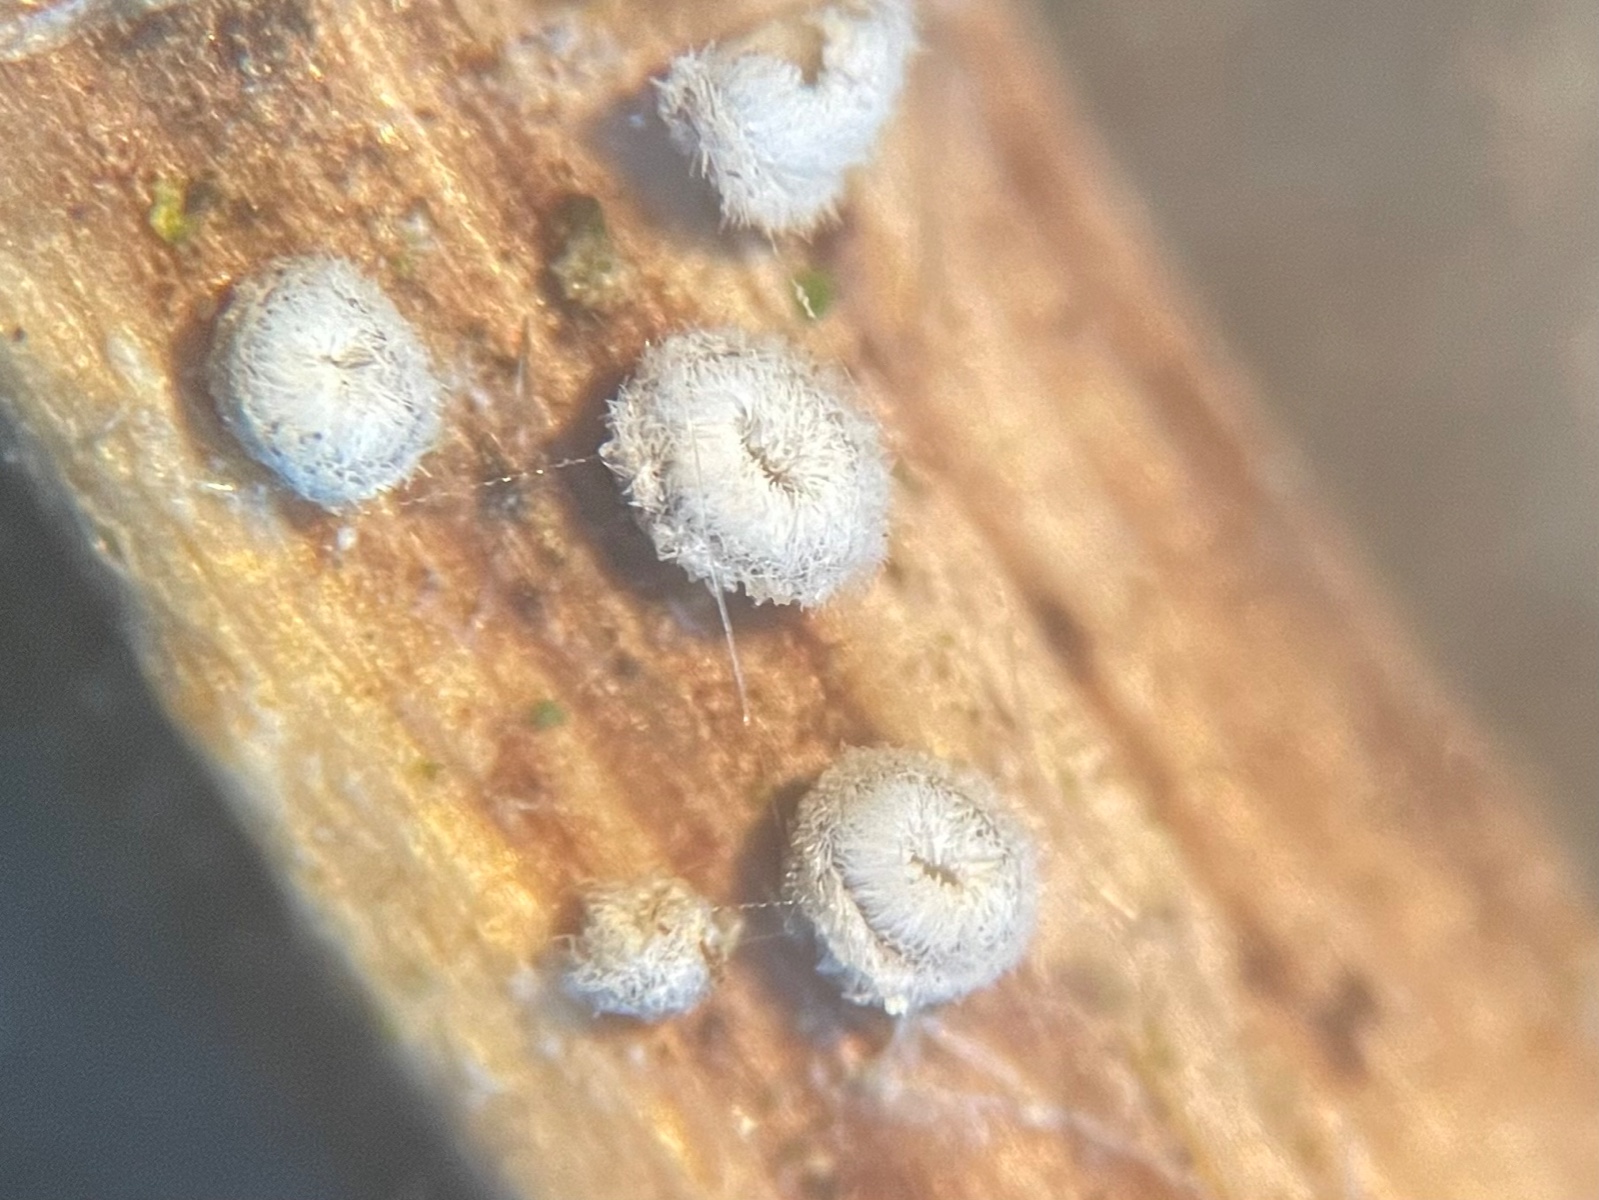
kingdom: Fungi
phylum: Basidiomycota
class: Agaricomycetes
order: Agaricales
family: Niaceae
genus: Lachnella
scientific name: Lachnella alboviolascens
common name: grå frynserede
